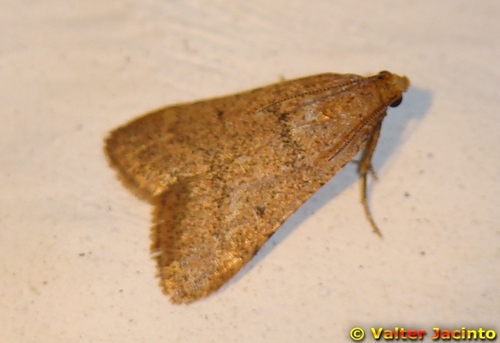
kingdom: Animalia
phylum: Arthropoda
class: Insecta
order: Lepidoptera
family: Pyralidae
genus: Bostra
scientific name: Bostra obsoletalis
